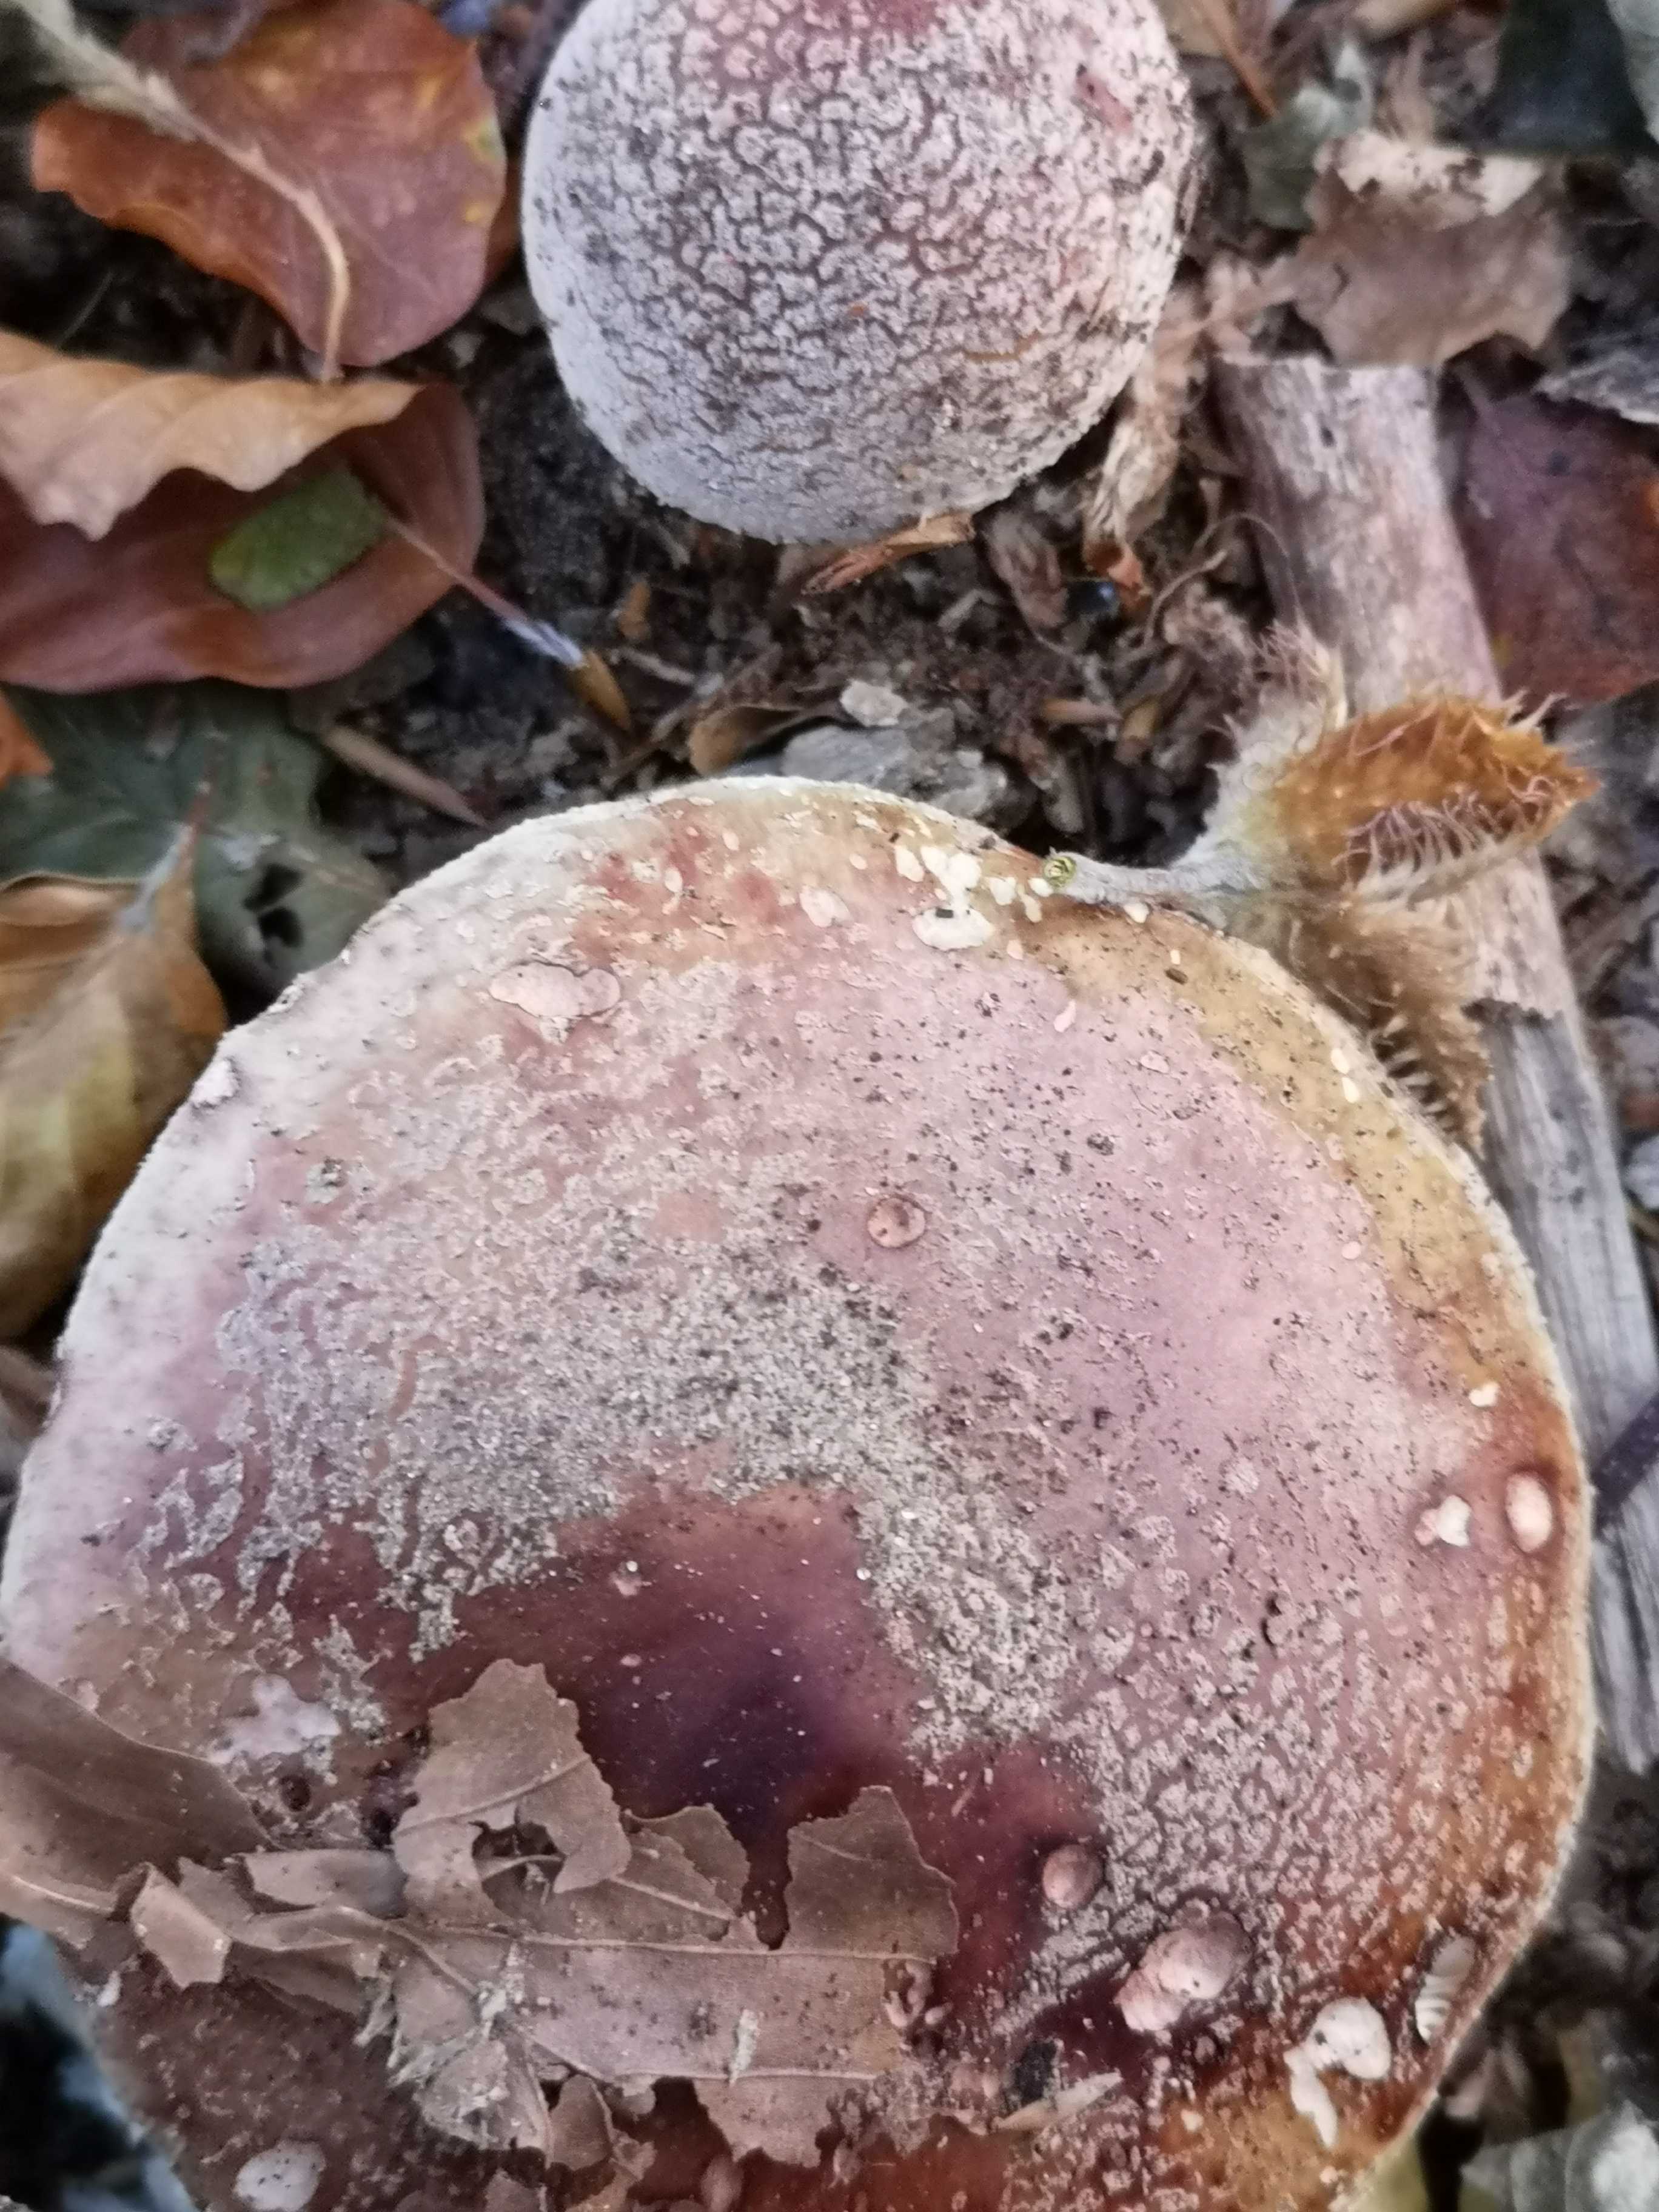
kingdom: Fungi
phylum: Basidiomycota
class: Agaricomycetes
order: Agaricales
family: Amanitaceae
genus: Amanita
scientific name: Amanita rubescens
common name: rødmende fluesvamp
